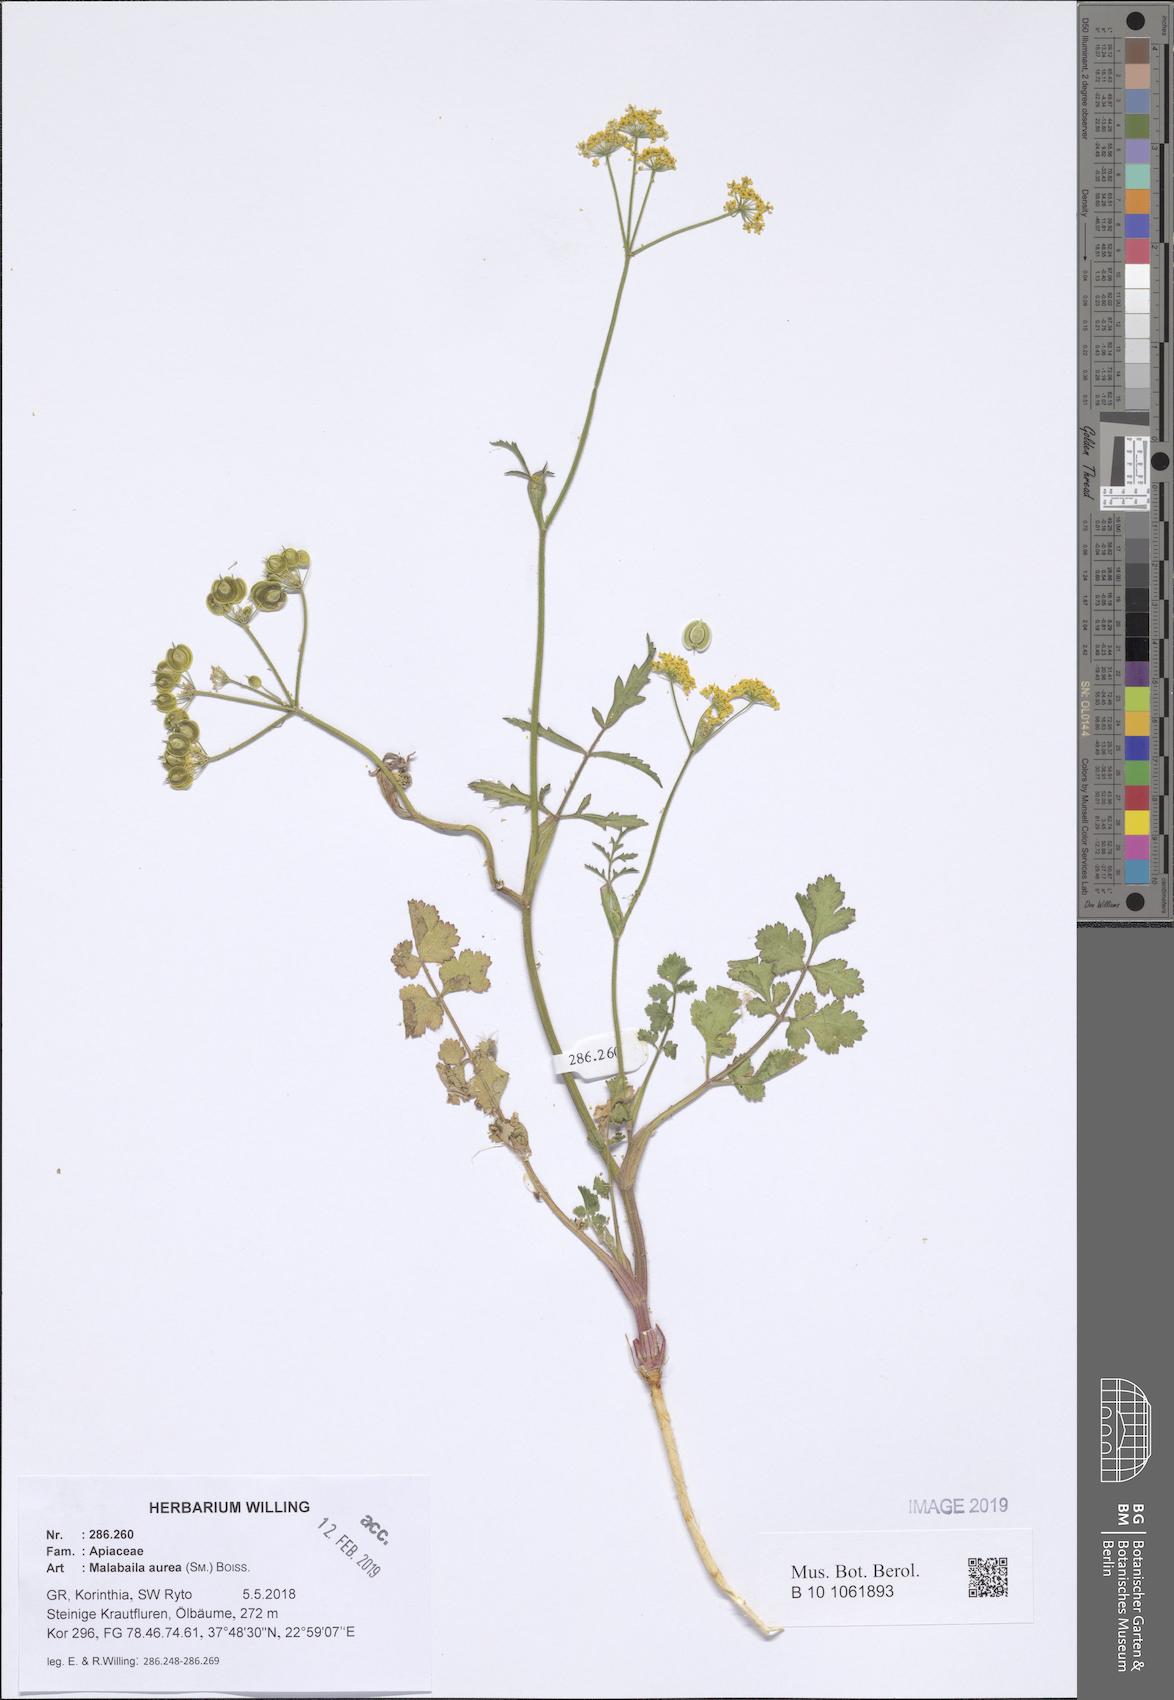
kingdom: Plantae
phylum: Tracheophyta
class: Magnoliopsida
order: Apiales
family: Apiaceae
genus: Leiotulus
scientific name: Leiotulus aureus
